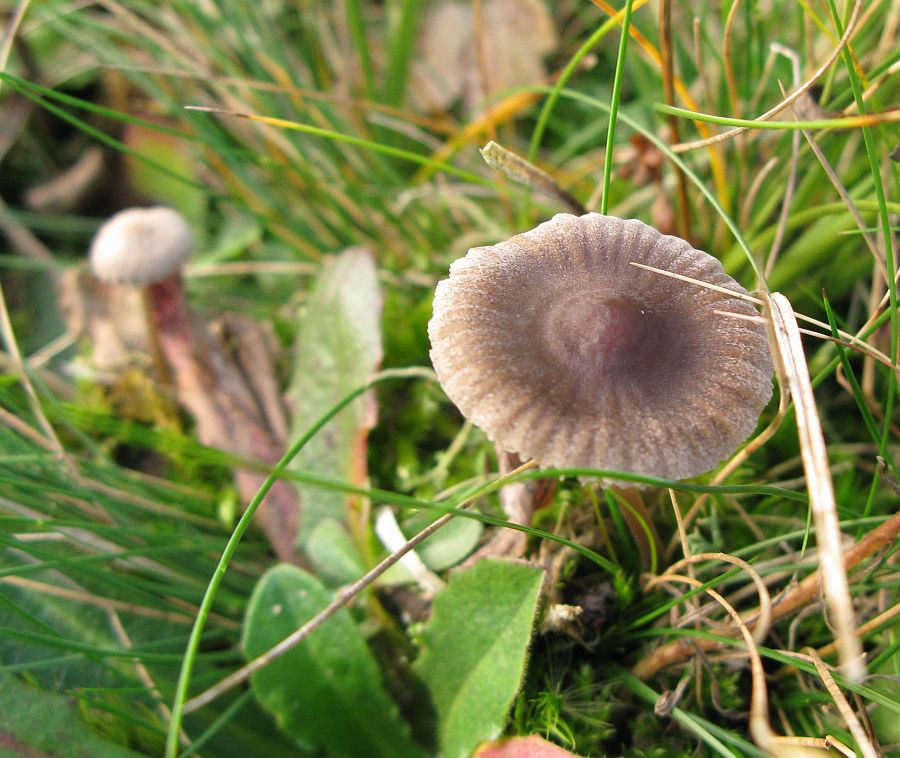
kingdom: Fungi
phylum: Basidiomycota
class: Agaricomycetes
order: Agaricales
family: Mycenaceae
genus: Mycena
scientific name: Mycena aetites
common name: plæne-huesvamp
